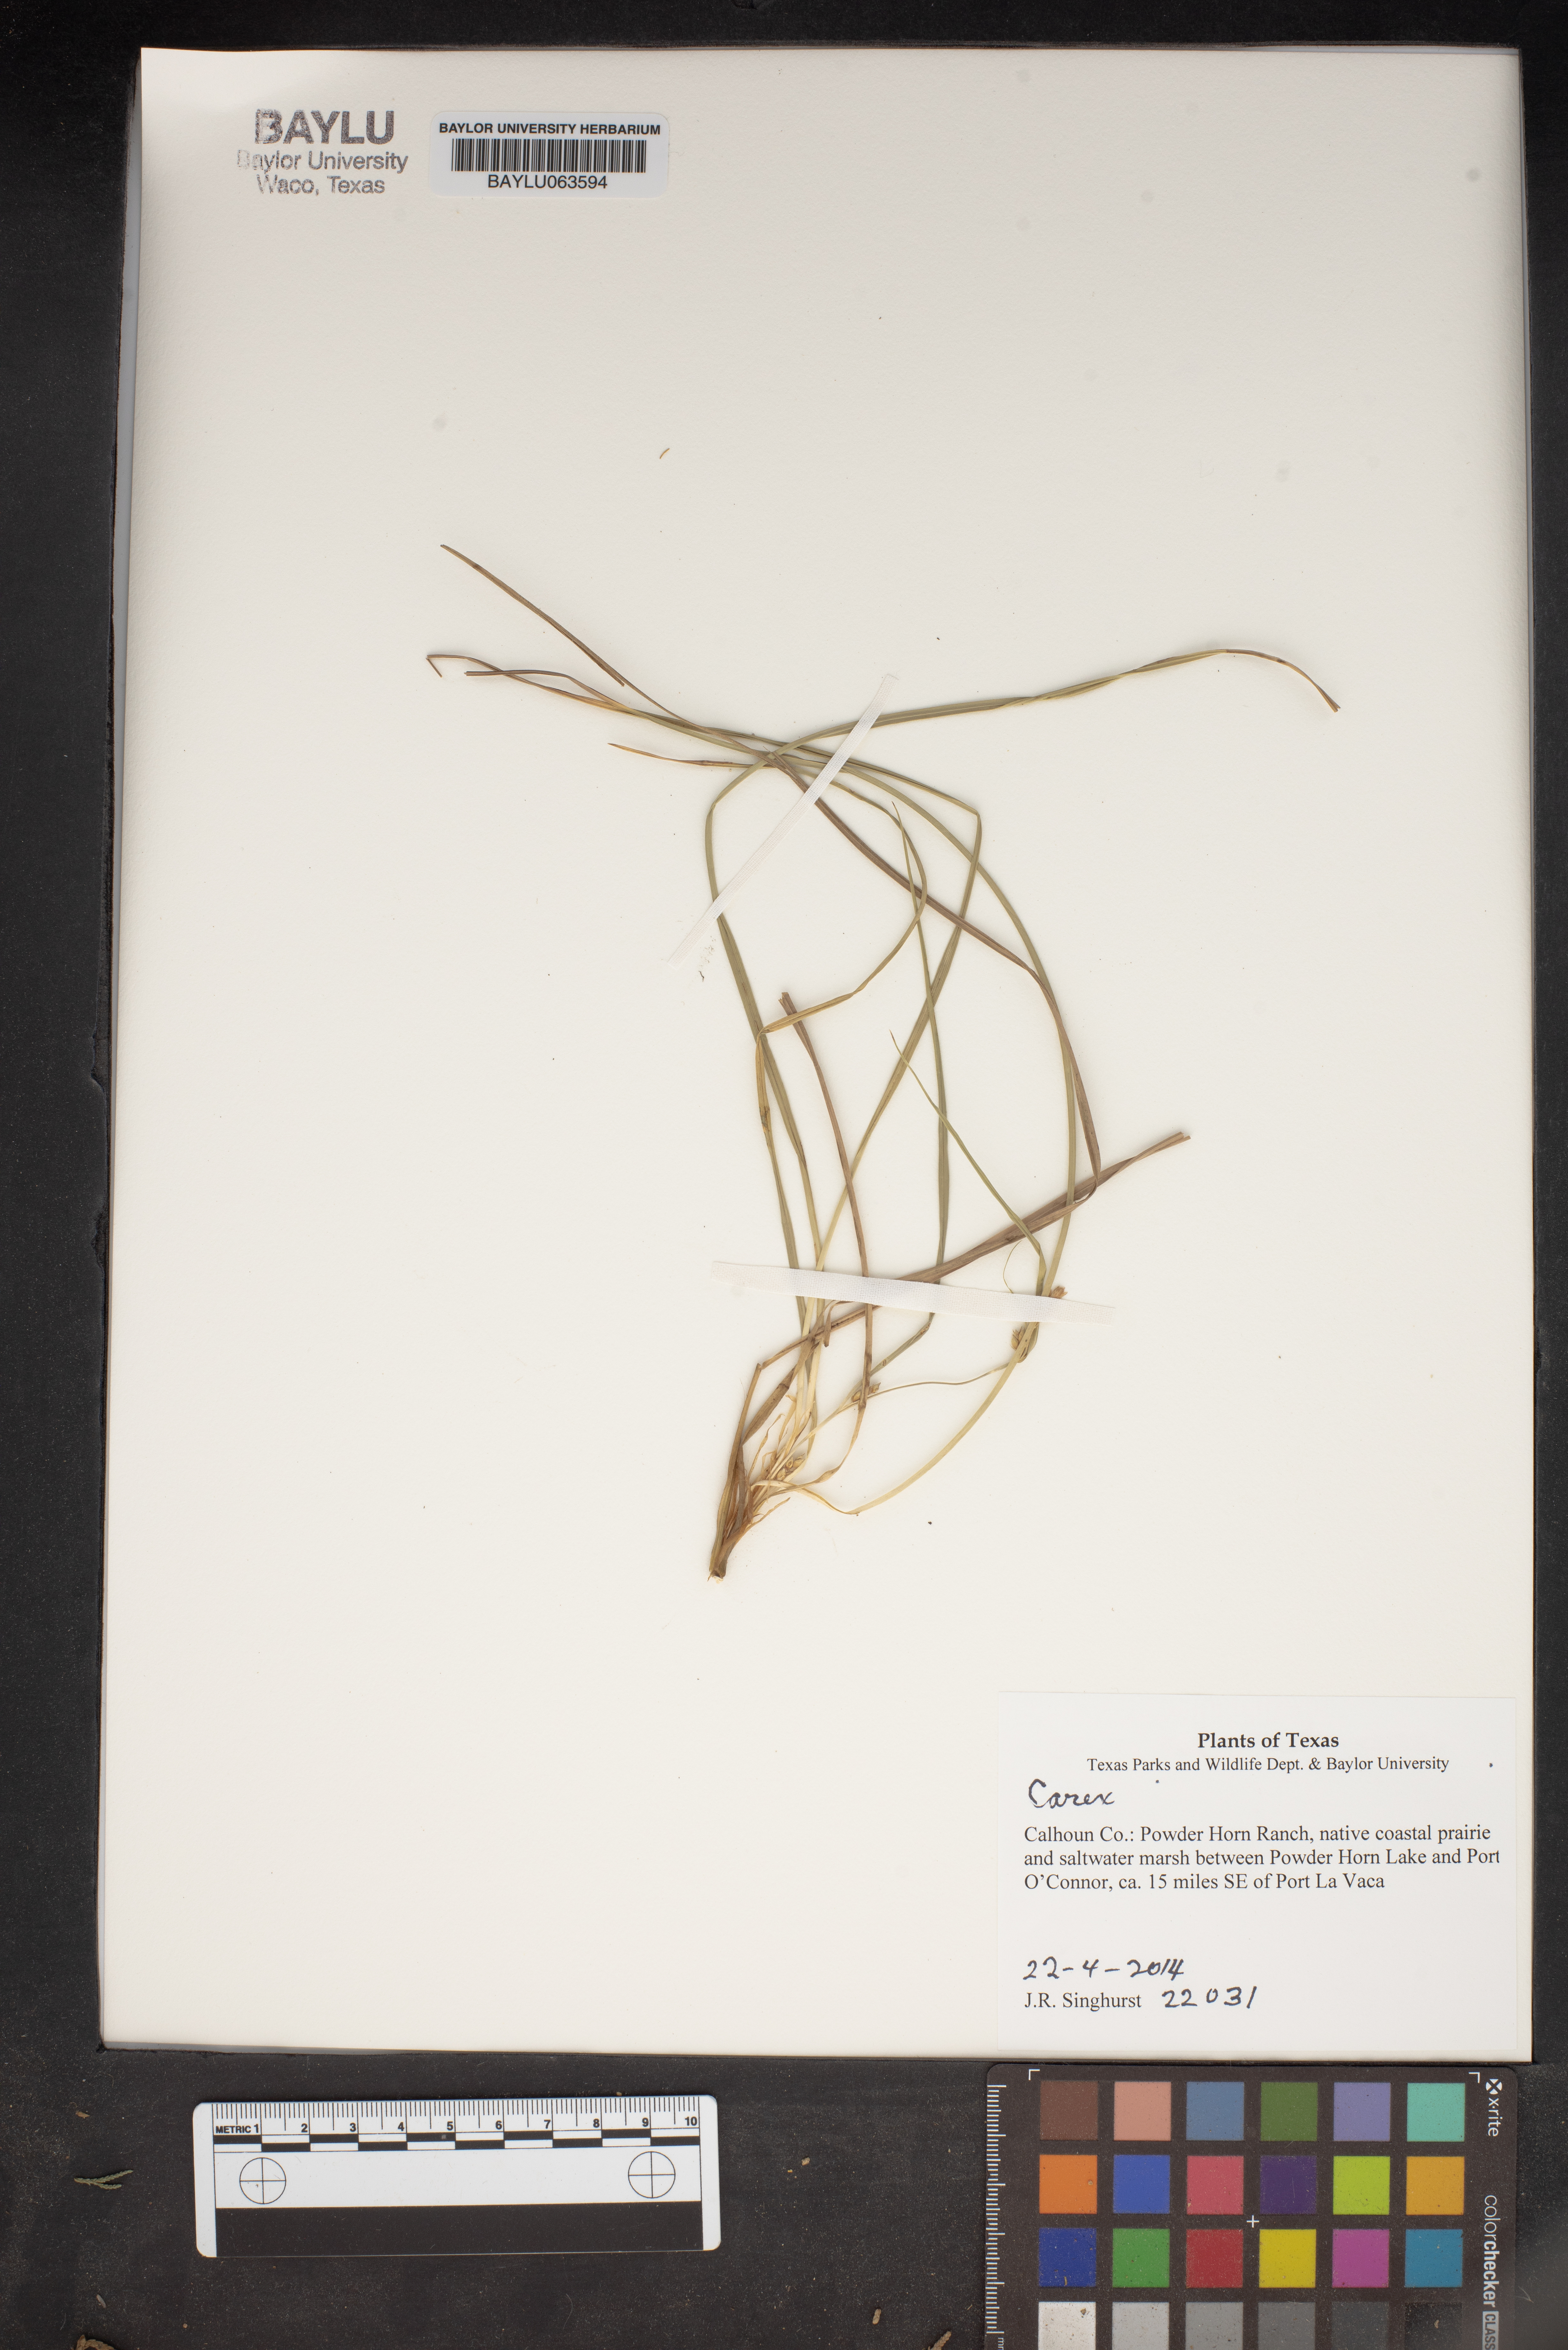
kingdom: Plantae
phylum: Tracheophyta
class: Liliopsida
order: Poales
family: Cyperaceae
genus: Carex
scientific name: Carex
